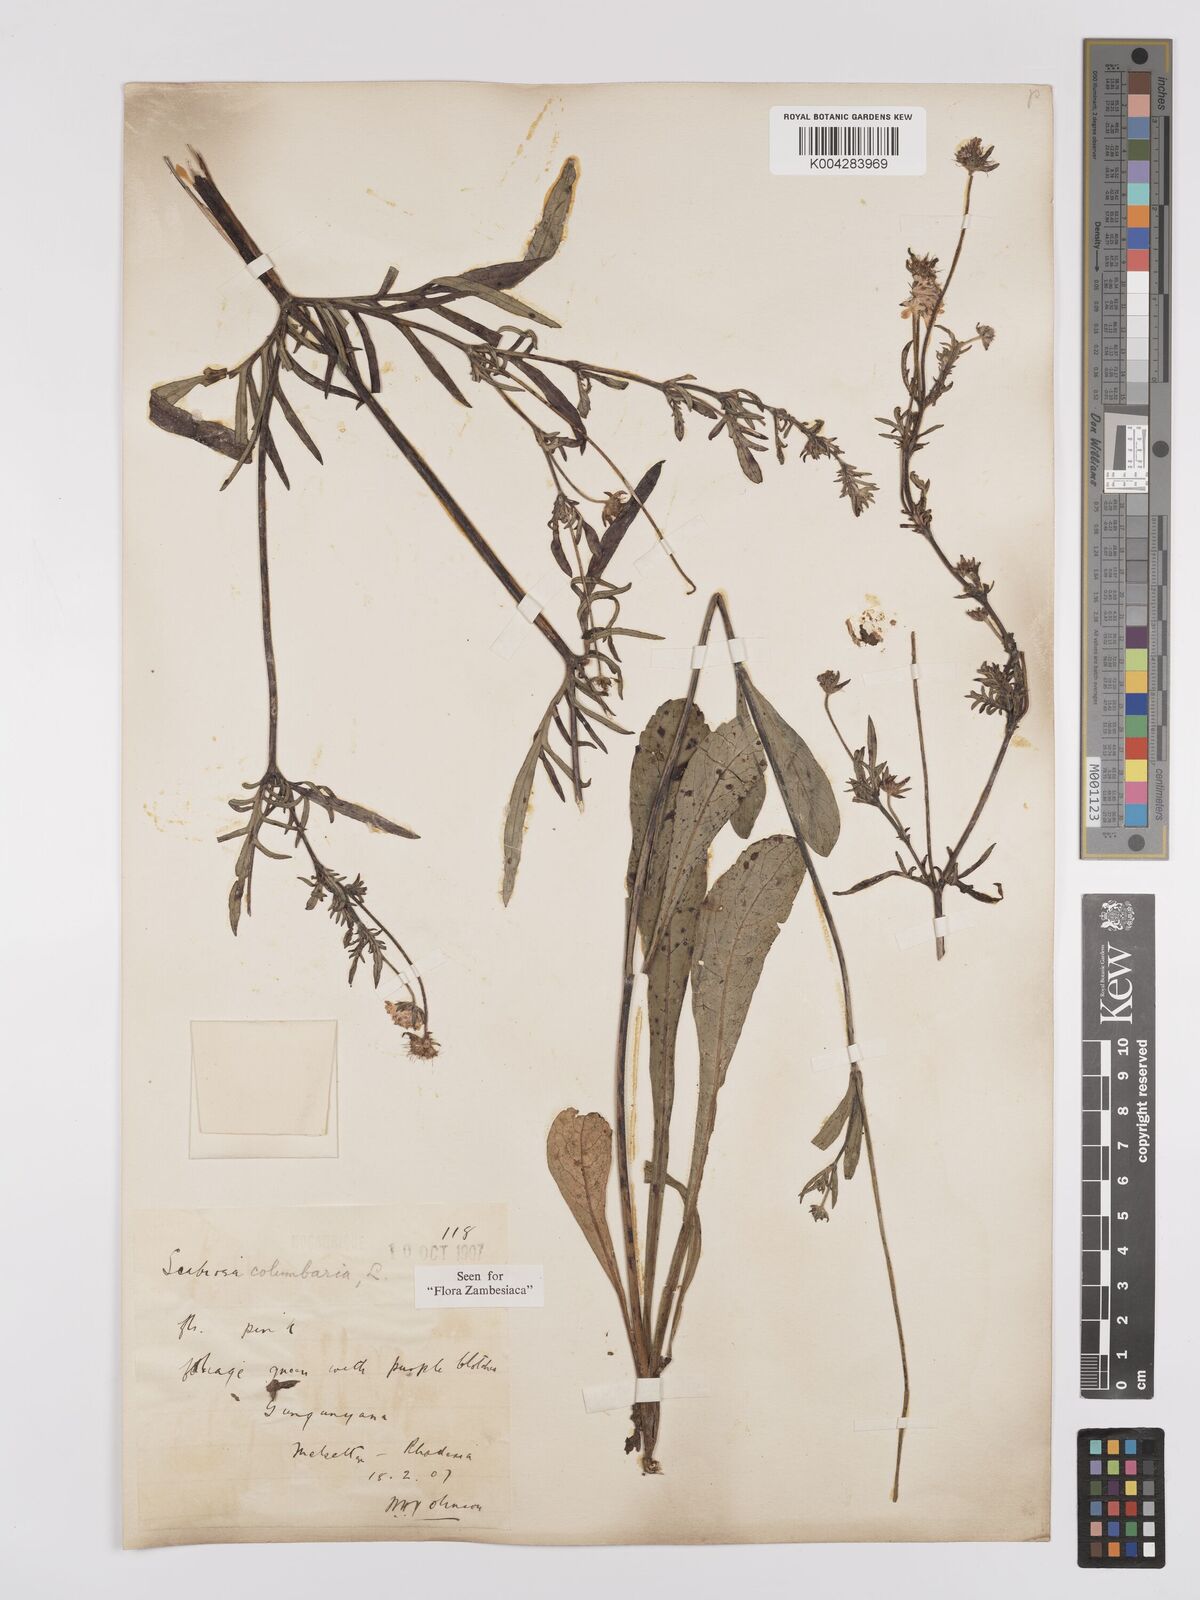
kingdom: Plantae
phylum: Tracheophyta
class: Magnoliopsida
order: Dipsacales
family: Caprifoliaceae
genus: Scabiosa
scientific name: Scabiosa columbaria
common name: Small scabious
